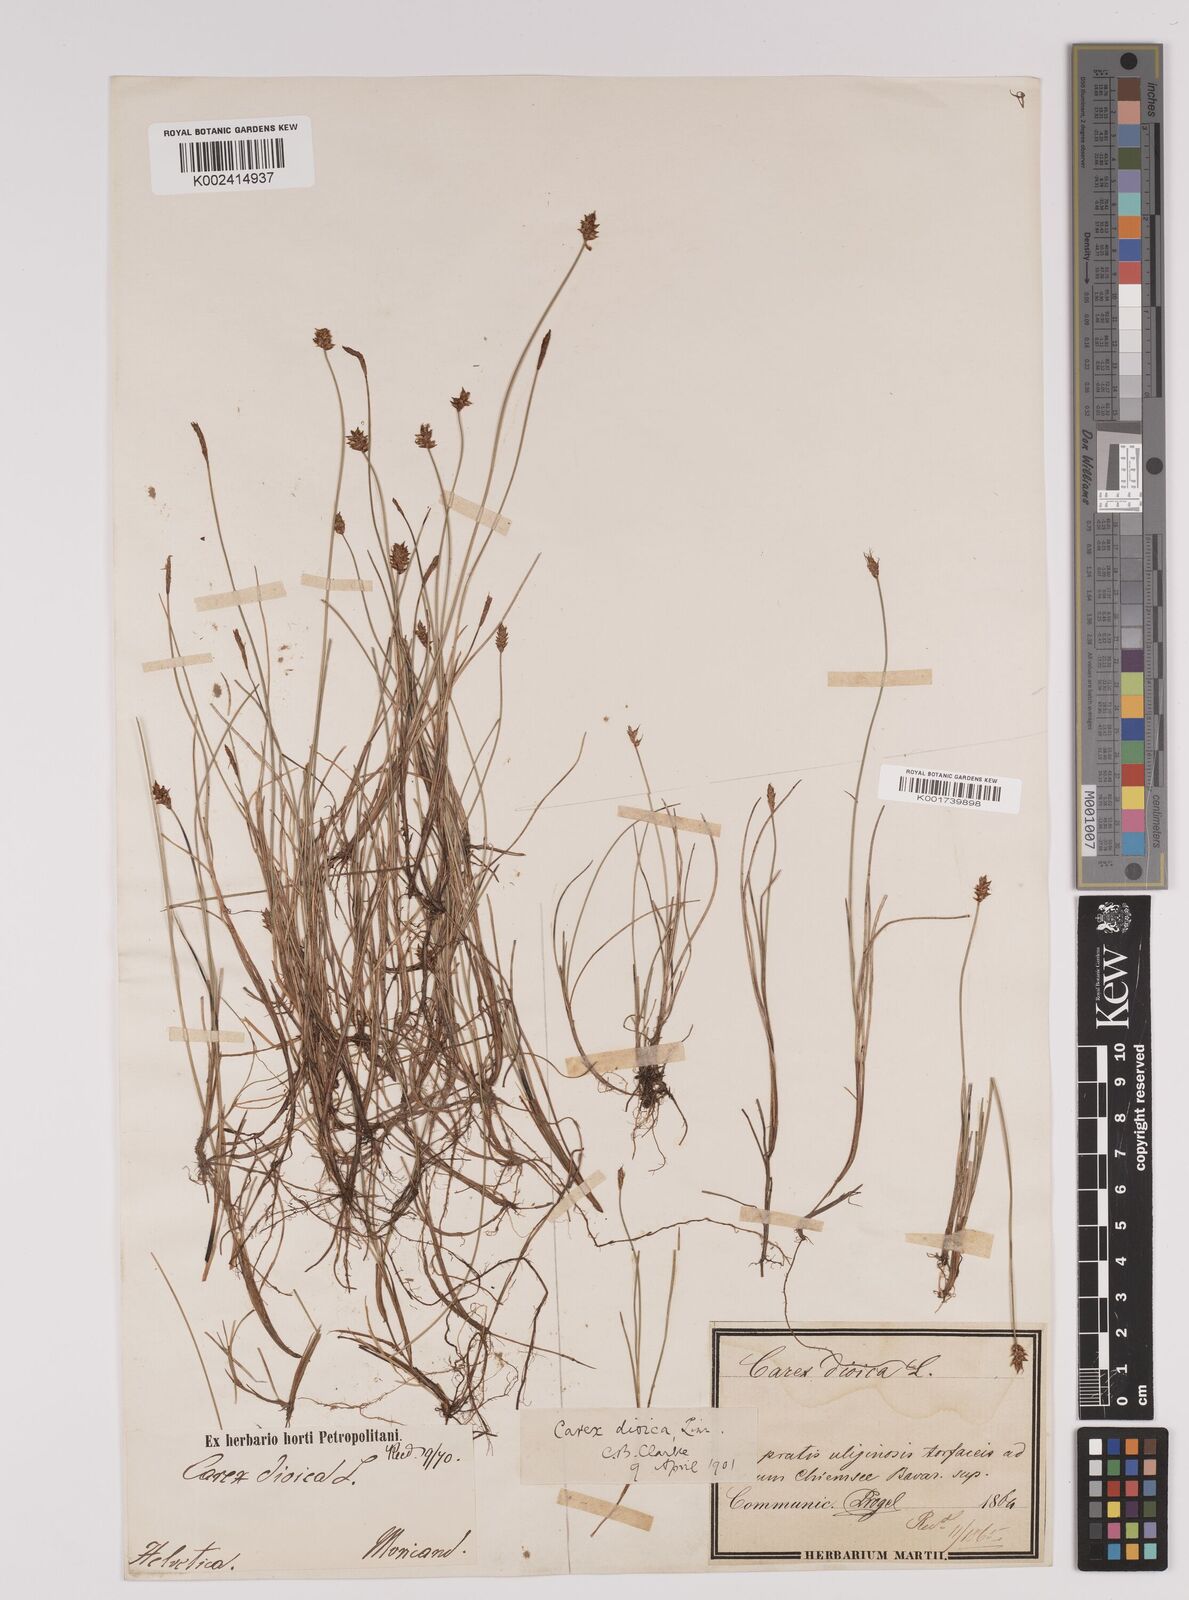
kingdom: Plantae
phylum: Tracheophyta
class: Liliopsida
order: Poales
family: Cyperaceae
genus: Carex
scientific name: Carex dioica
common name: Dioecious sedge
